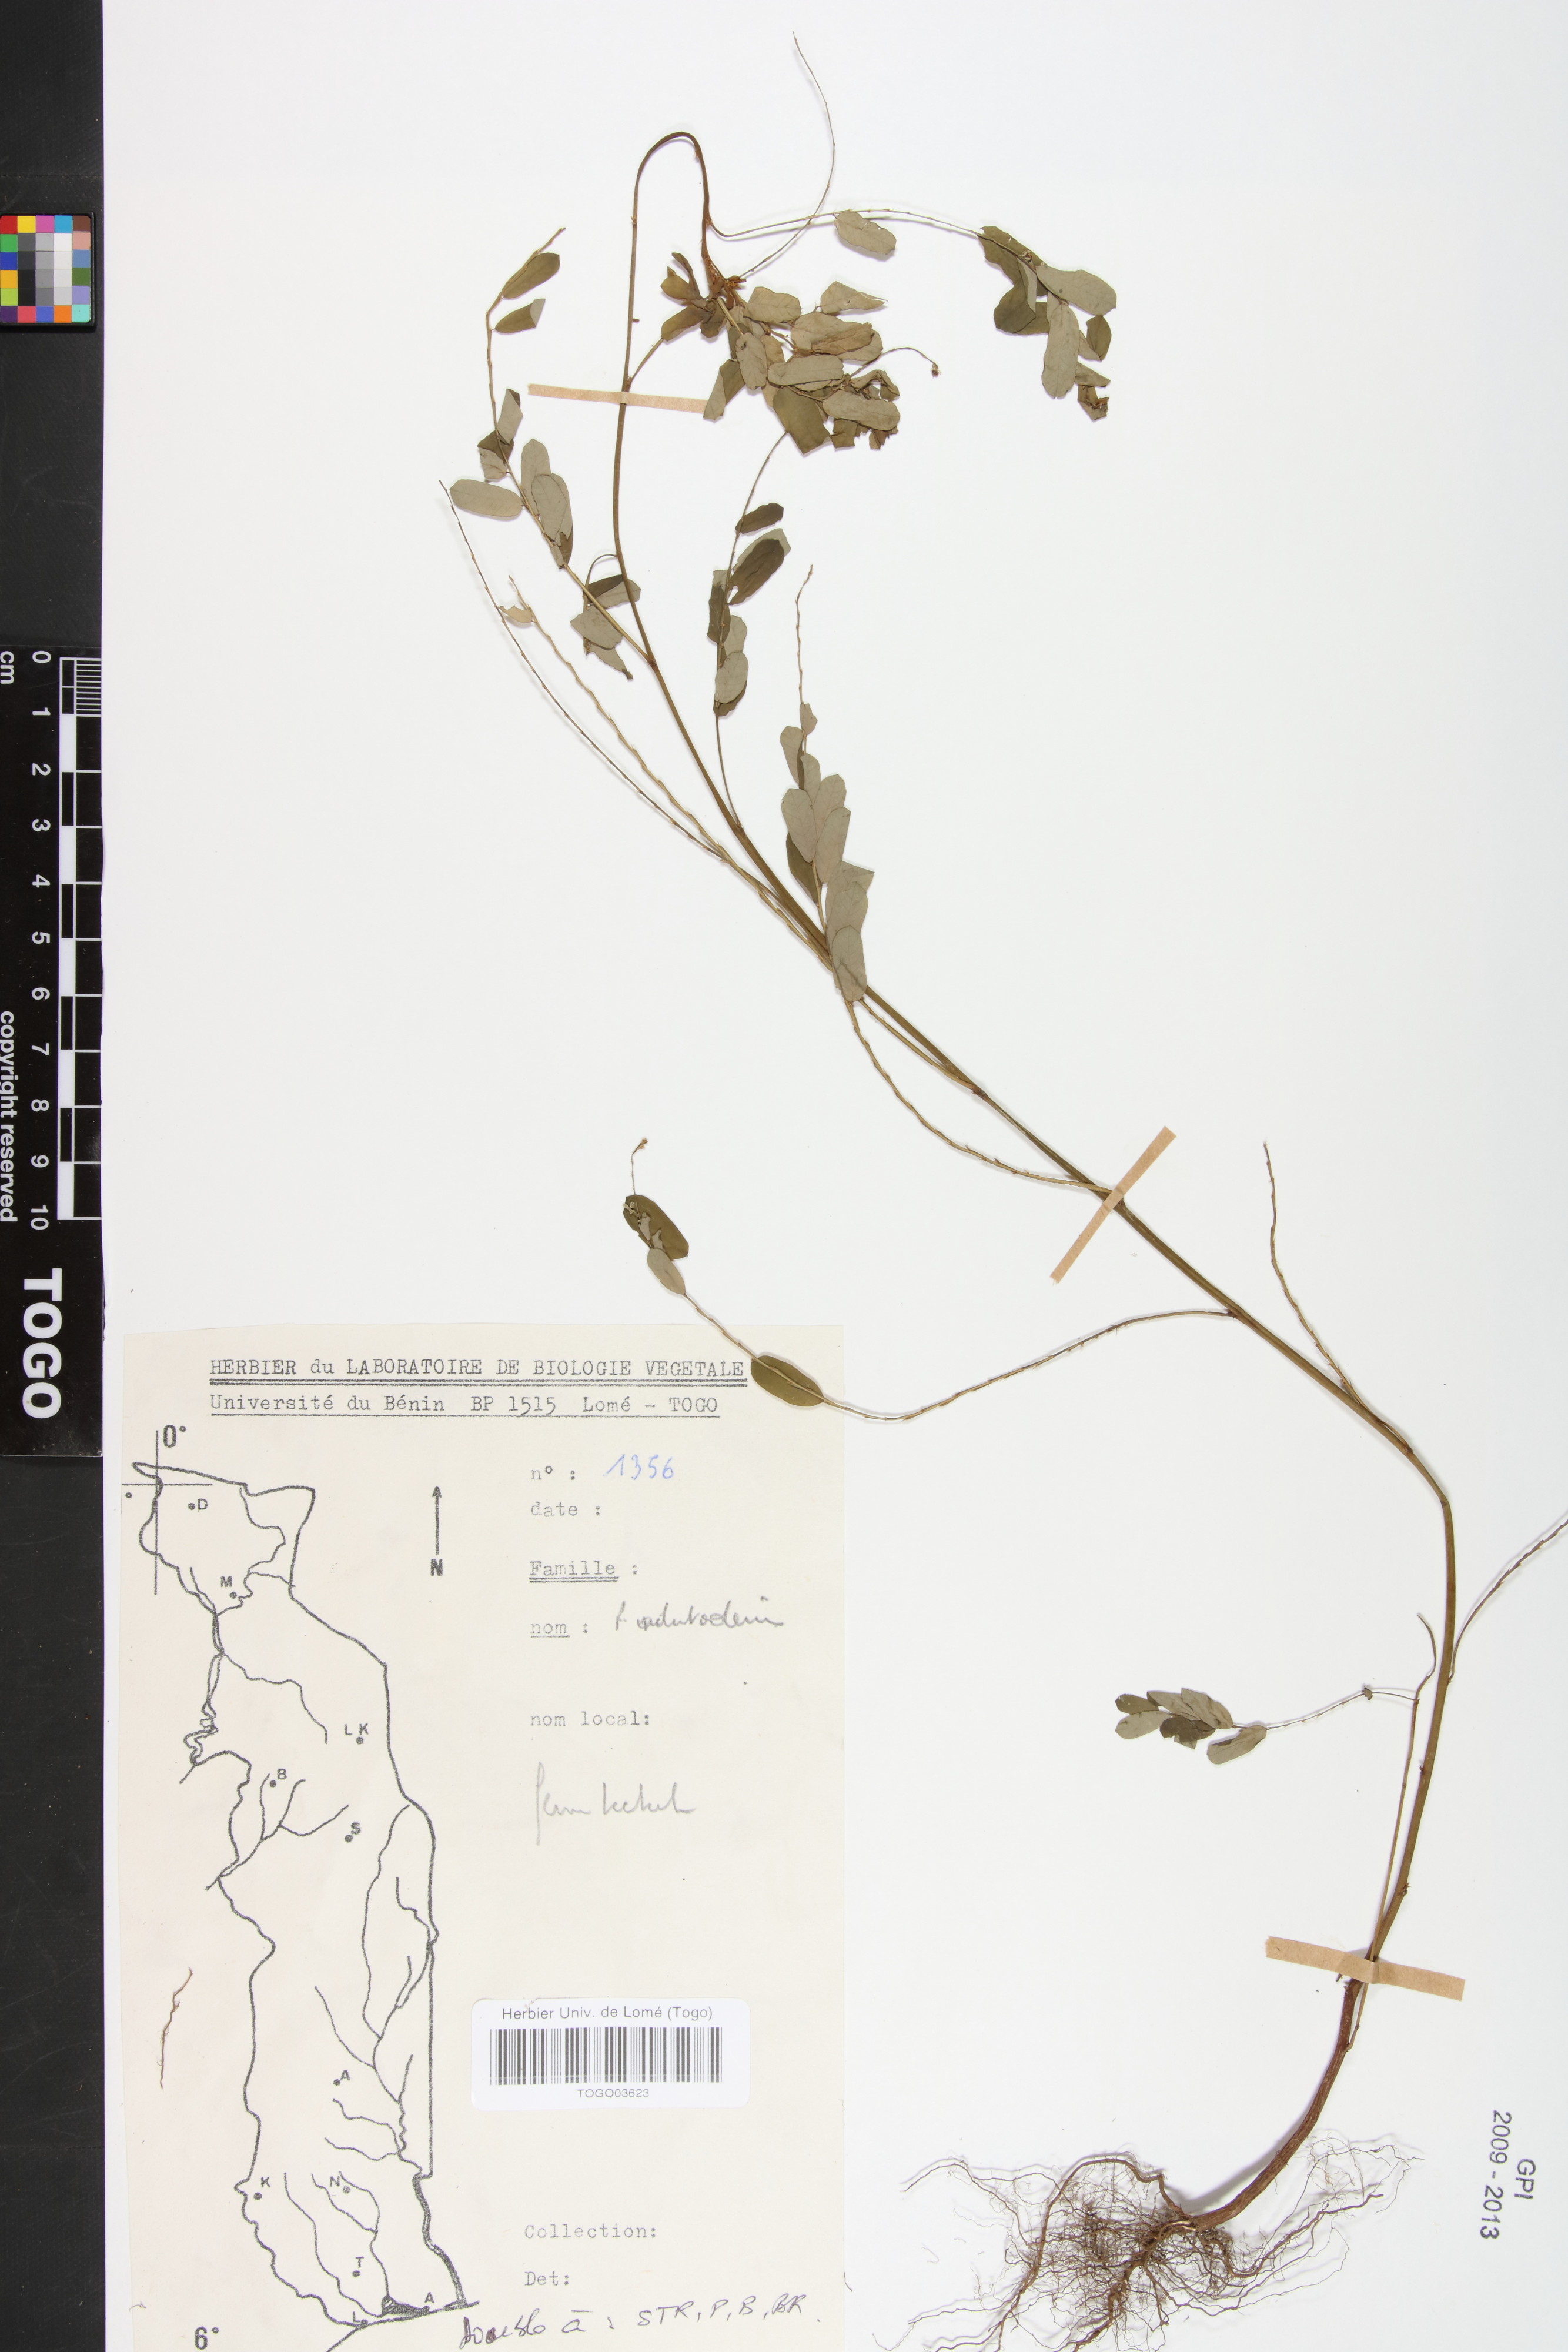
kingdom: Plantae
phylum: Tracheophyta
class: Magnoliopsida
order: Malpighiales
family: Phyllanthaceae
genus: Phyllanthus
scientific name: Phyllanthus odontadenius
